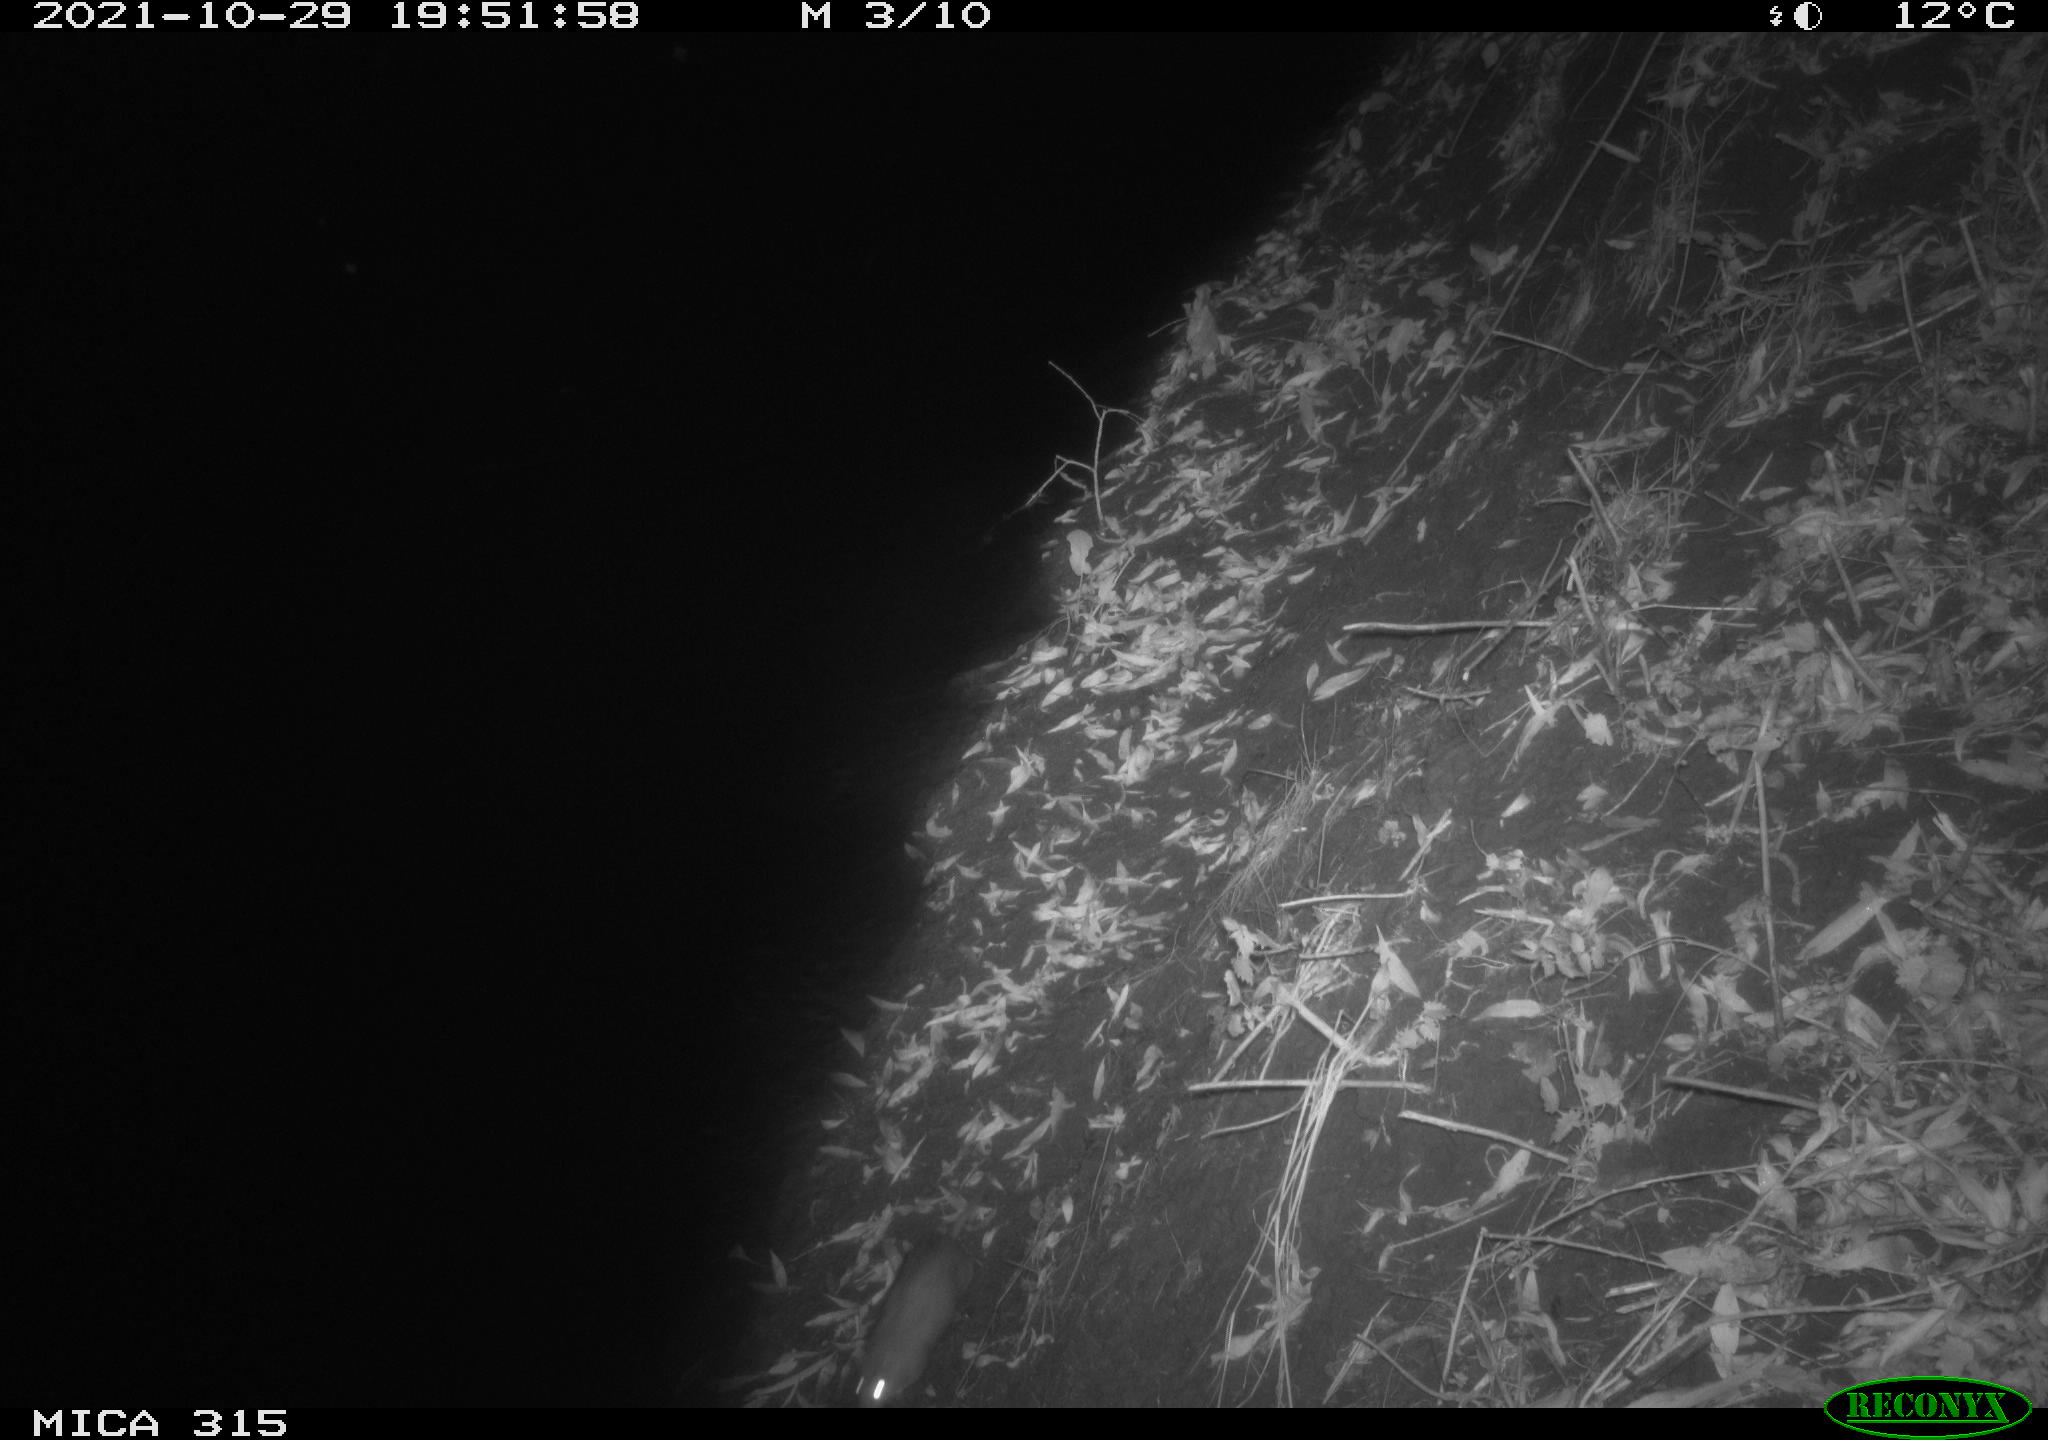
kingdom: Animalia
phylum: Chordata
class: Mammalia
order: Rodentia
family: Muridae
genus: Rattus
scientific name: Rattus norvegicus
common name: Brown rat
